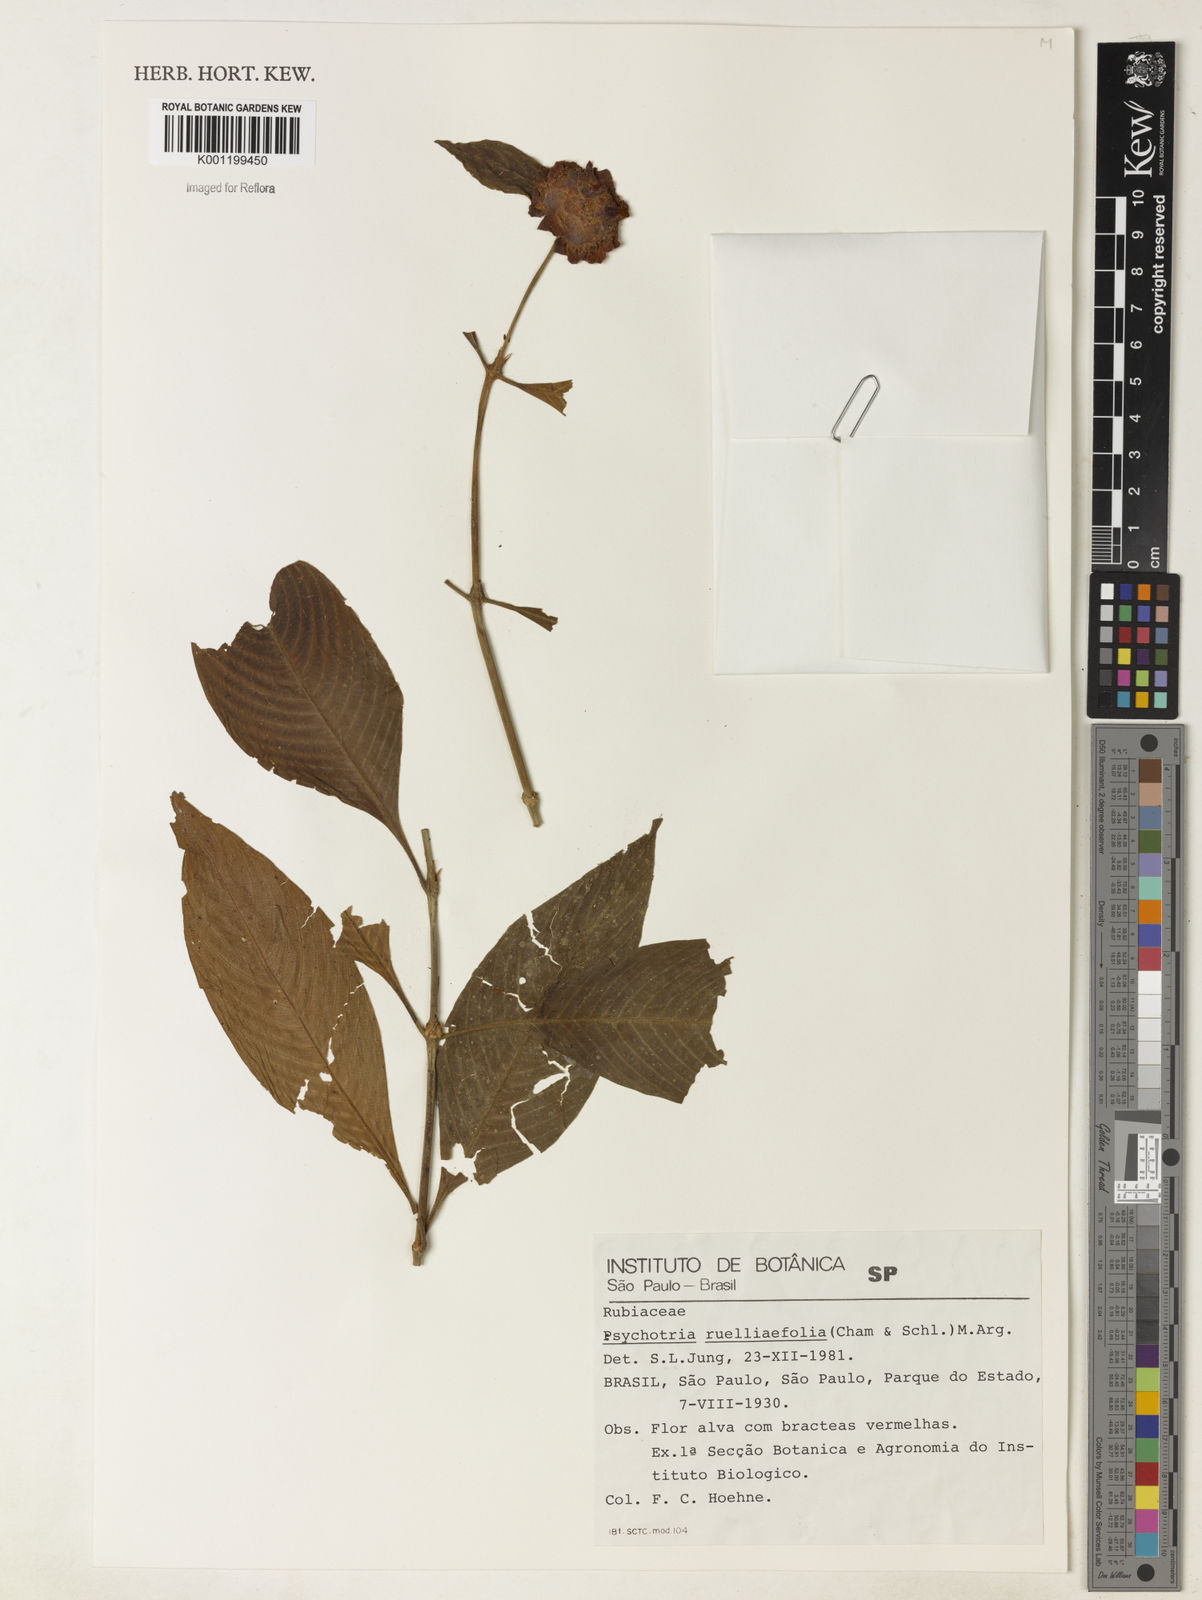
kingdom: Plantae
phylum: Tracheophyta
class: Magnoliopsida
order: Gentianales
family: Rubiaceae
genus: Psychotria
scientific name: Psychotria
